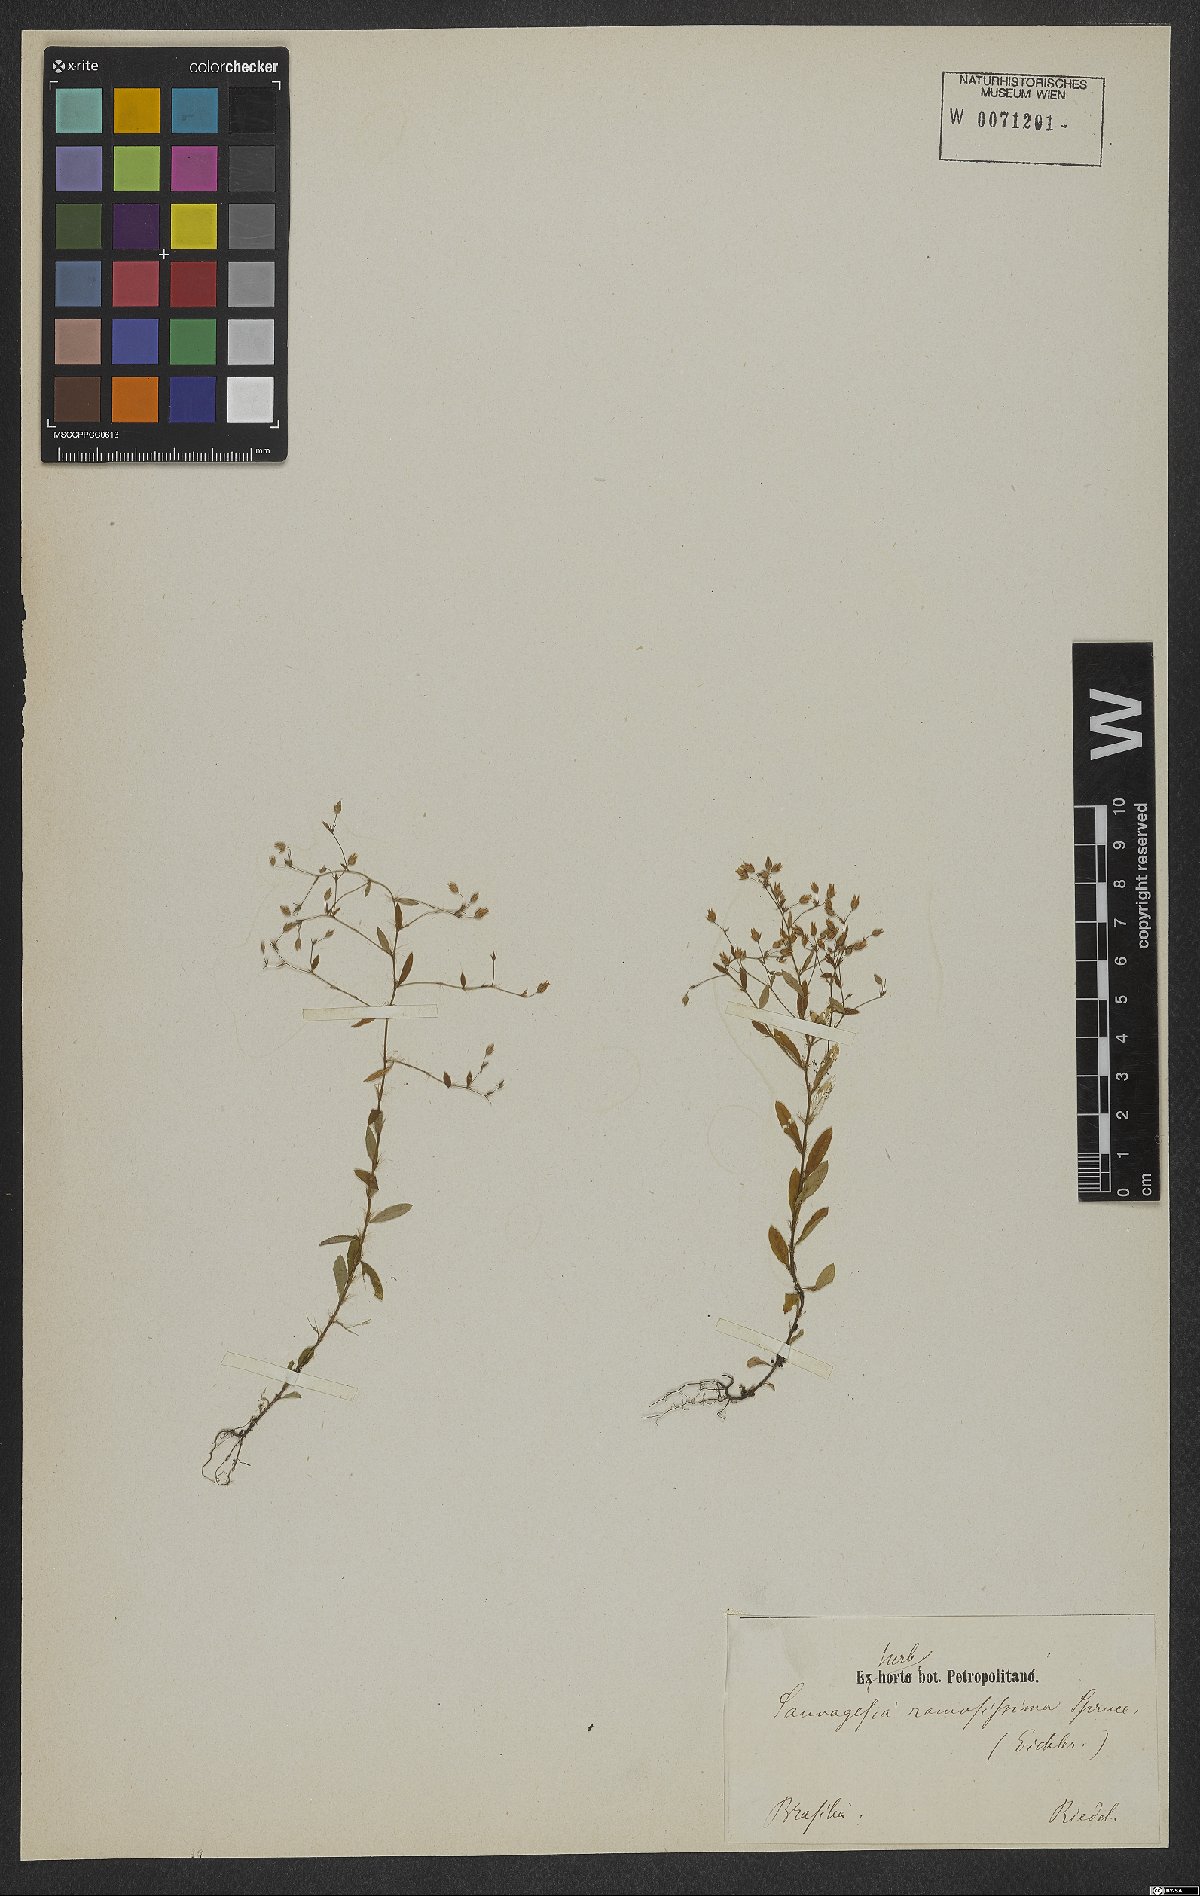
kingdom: Plantae
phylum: Tracheophyta
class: Magnoliopsida
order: Malpighiales
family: Ochnaceae
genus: Sauvagesia
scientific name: Sauvagesia ramosissima
